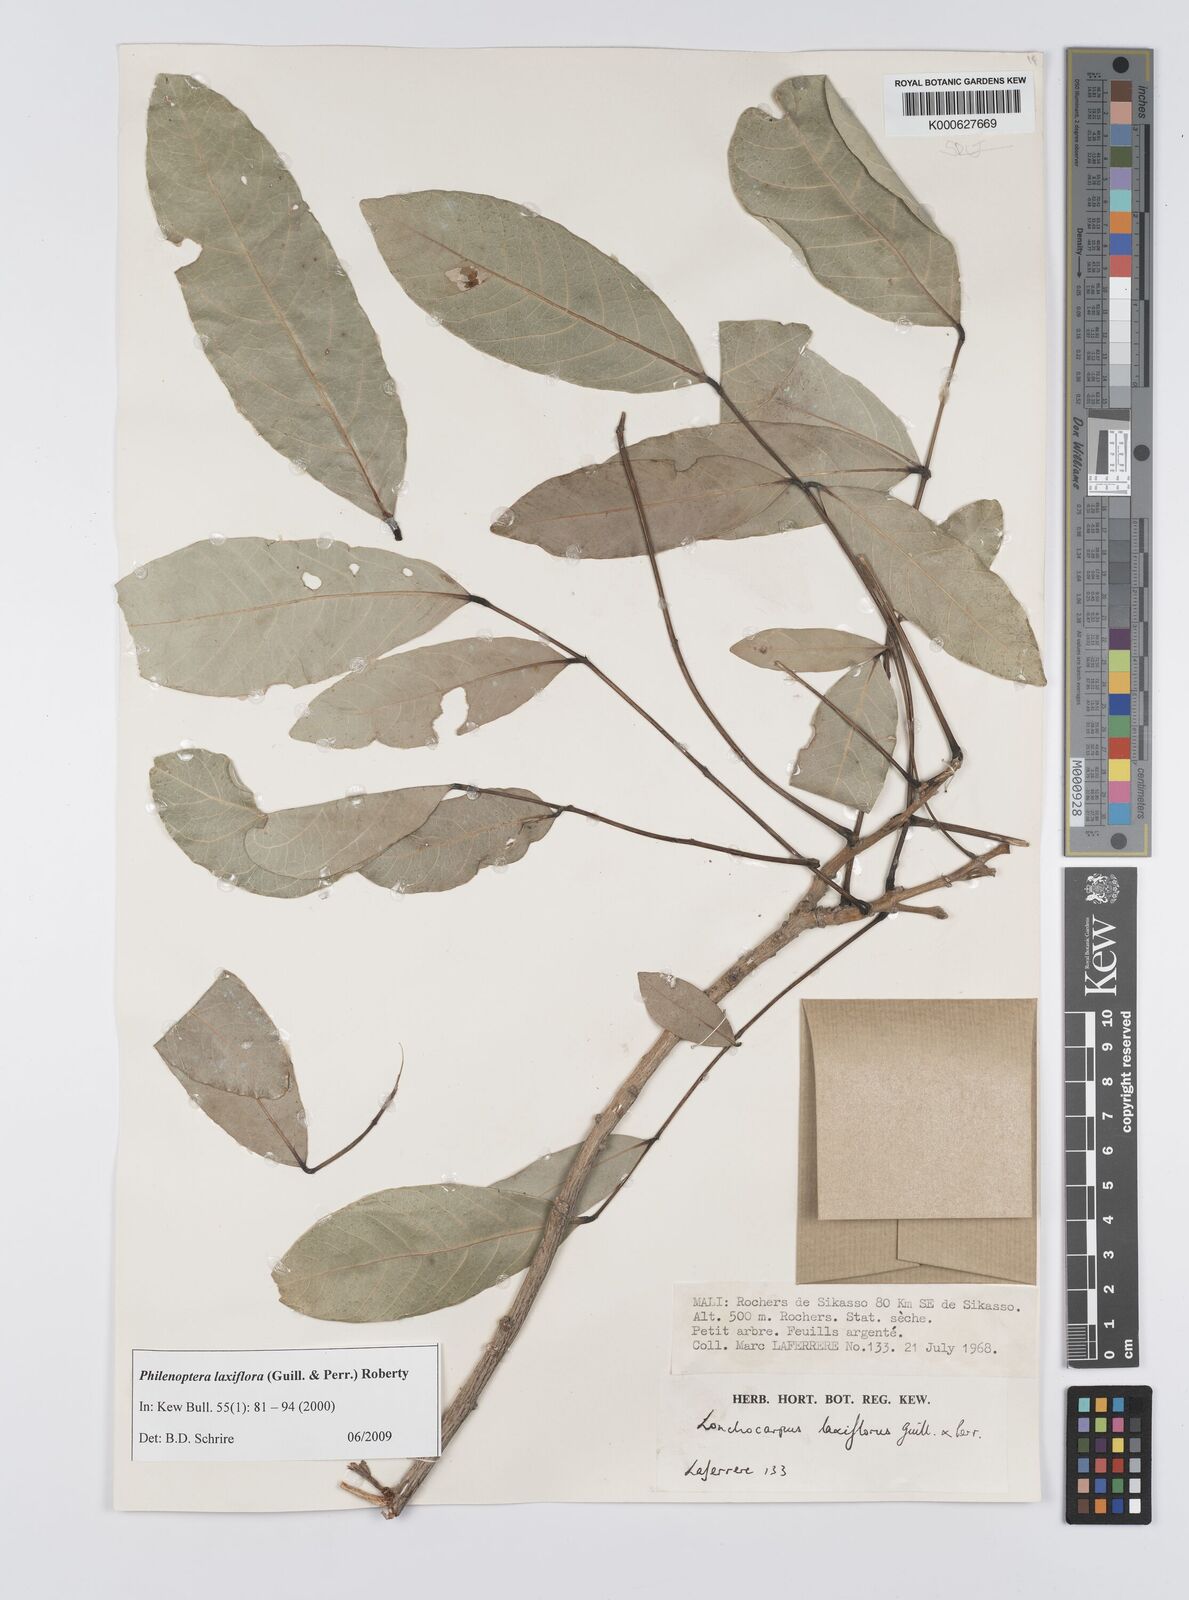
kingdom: Plantae
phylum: Tracheophyta
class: Magnoliopsida
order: Fabales
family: Fabaceae
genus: Philenoptera
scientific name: Philenoptera laxiflora
